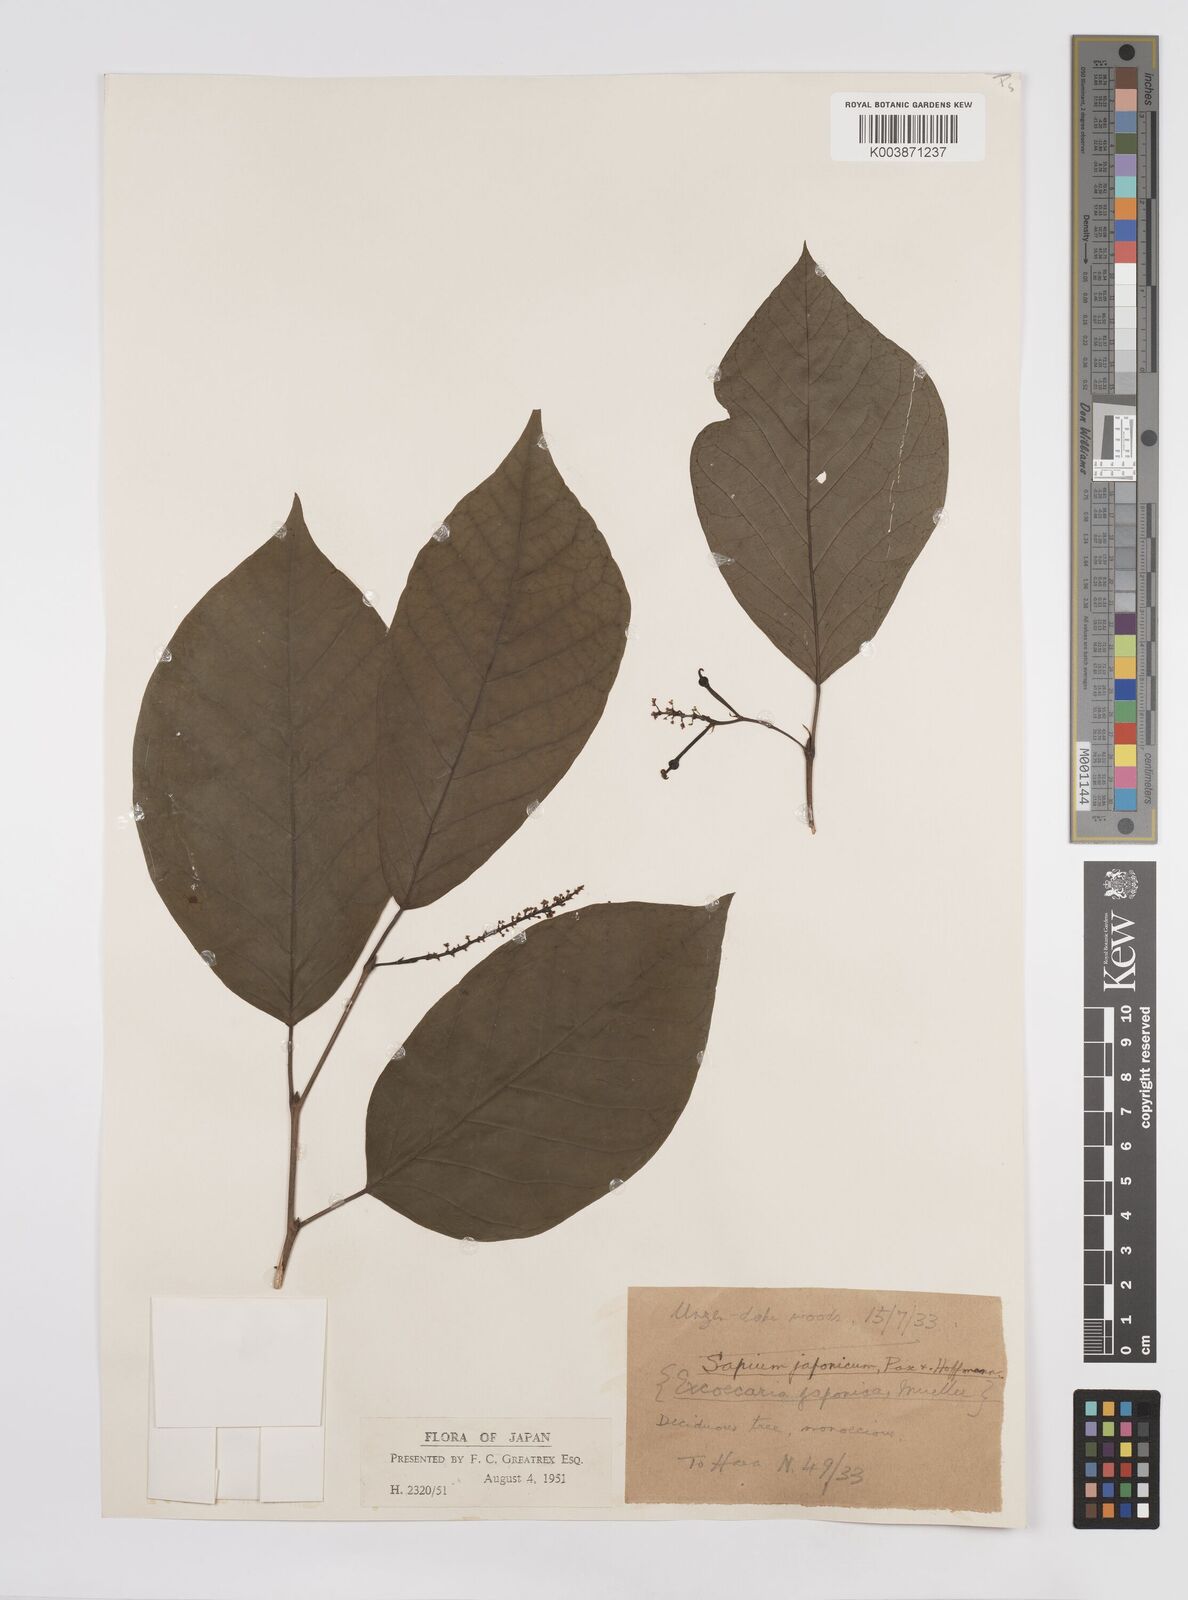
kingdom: Plantae
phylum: Tracheophyta
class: Magnoliopsida
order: Malpighiales
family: Euphorbiaceae
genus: Neoshirakia
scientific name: Neoshirakia japonica
